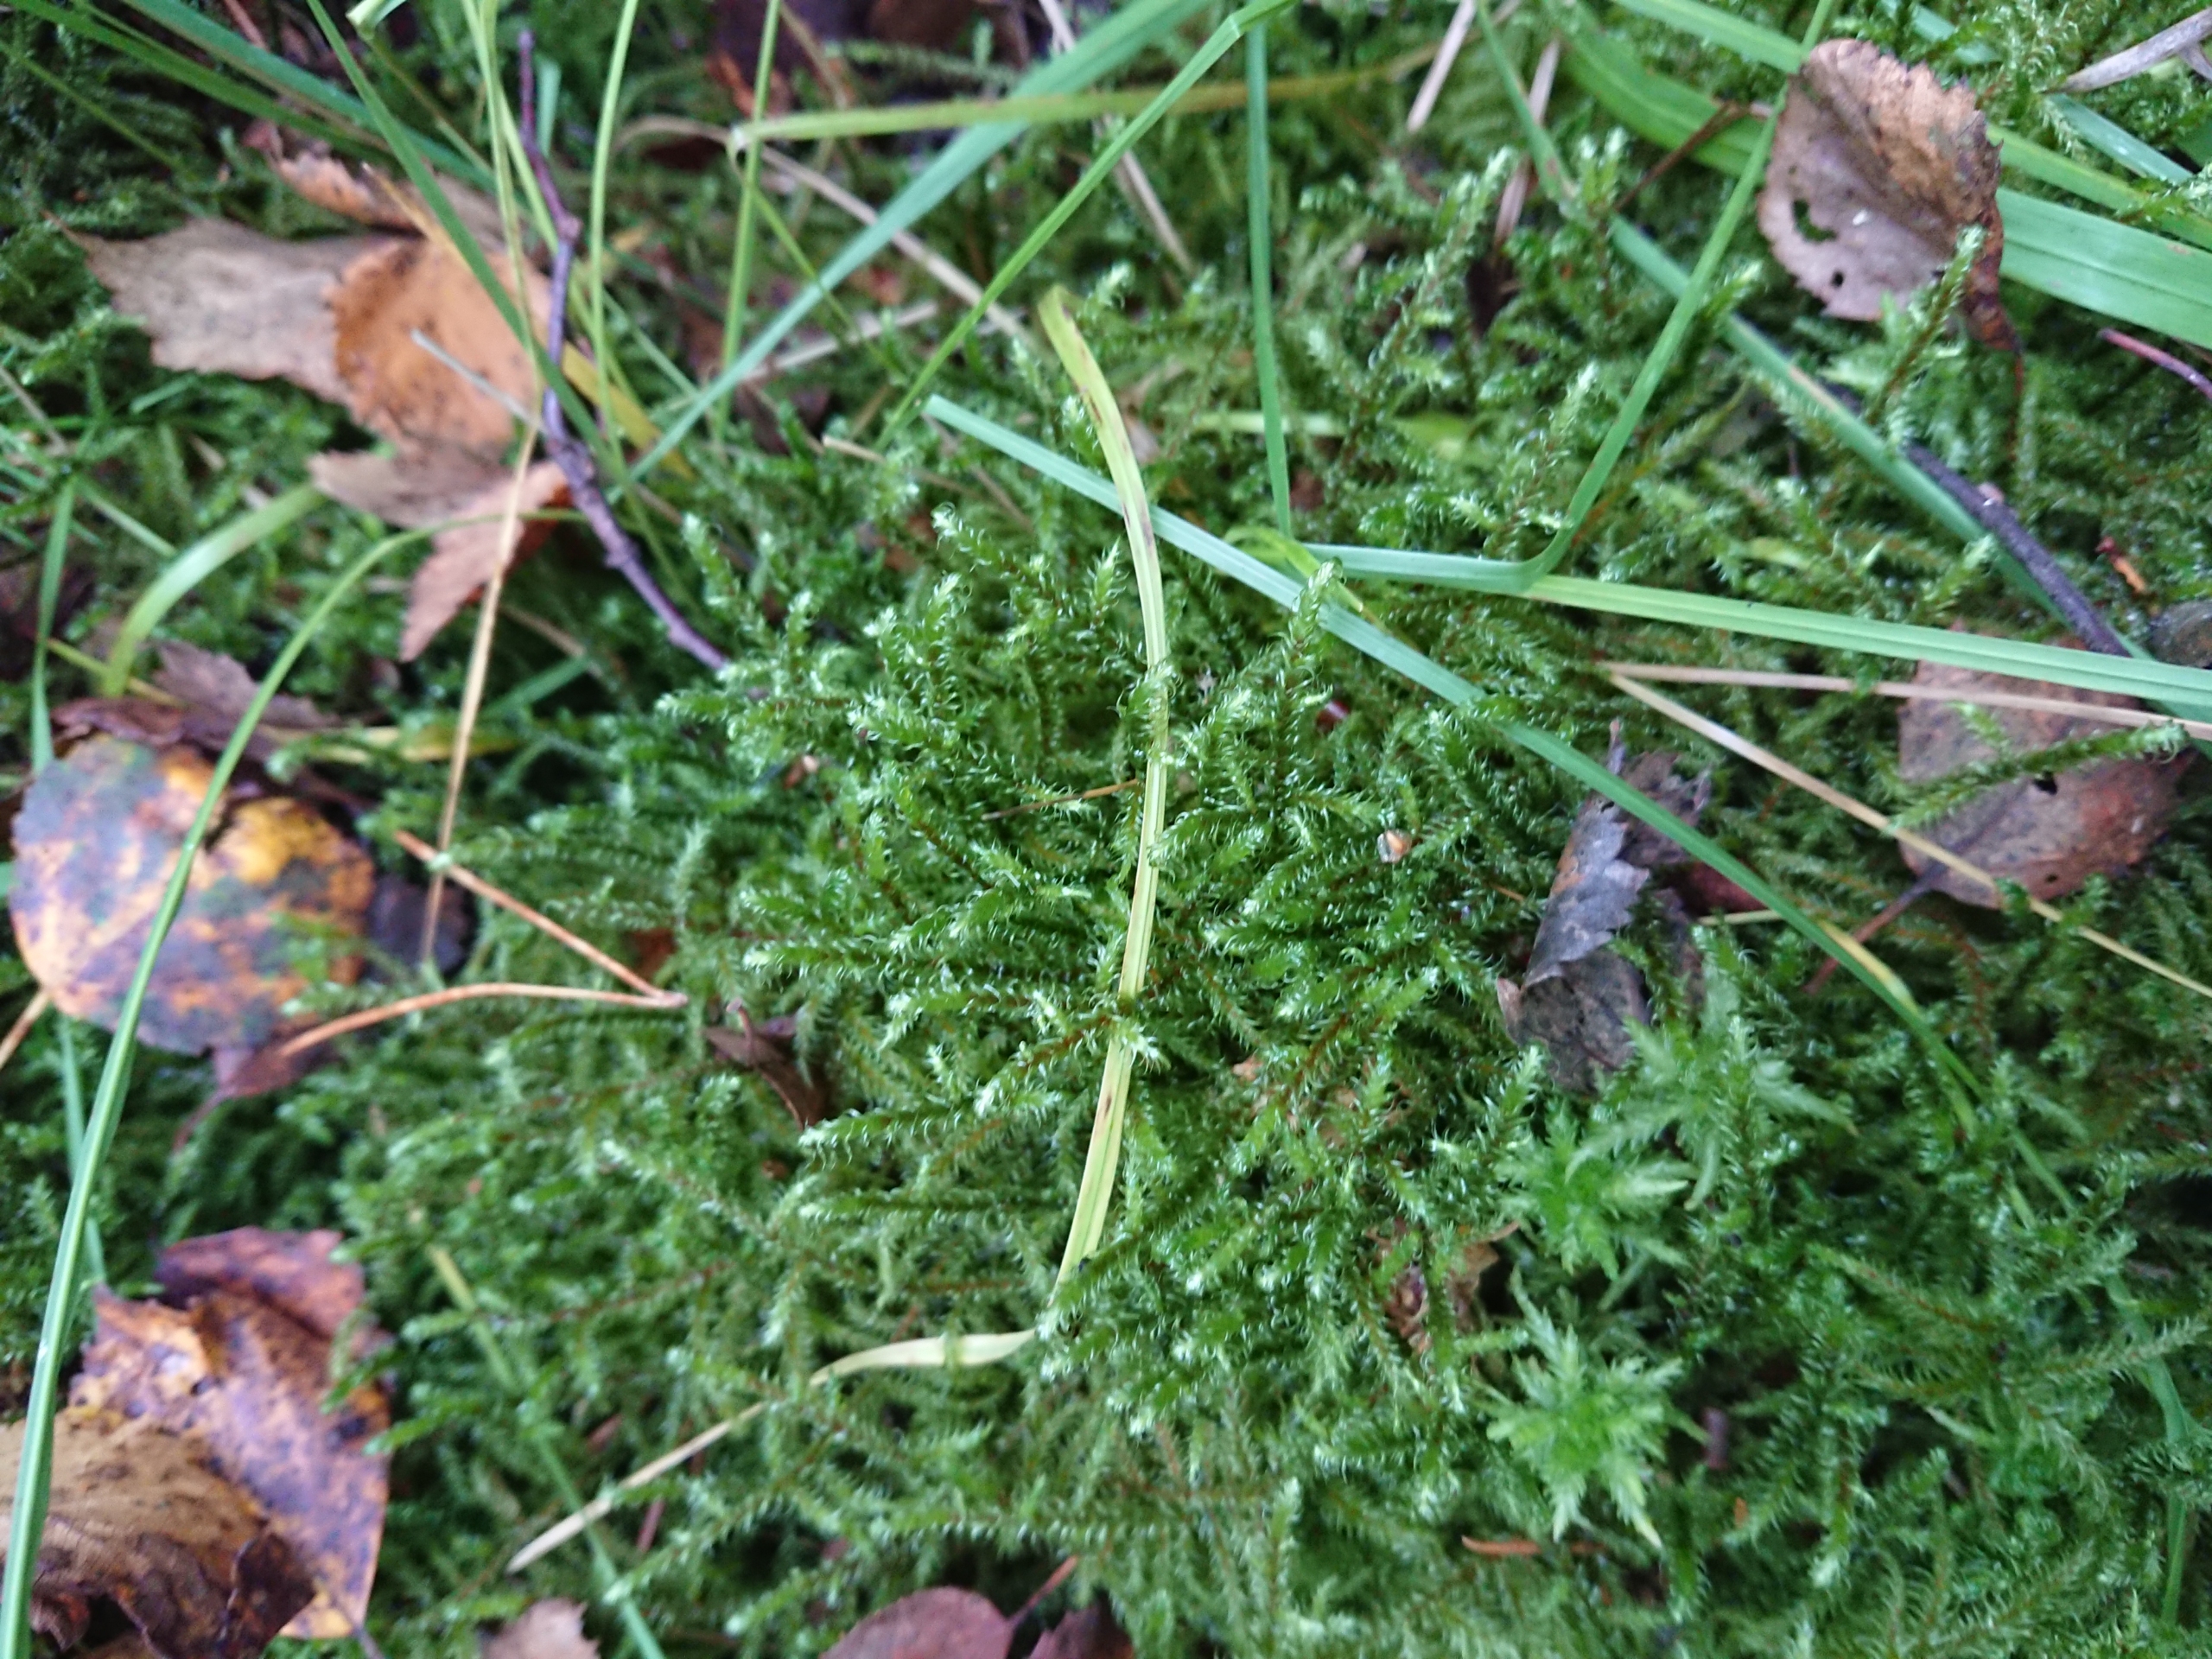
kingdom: Plantae
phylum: Bryophyta
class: Bryopsida
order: Hypnales
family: Hylocomiaceae
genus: Rhytidiadelphus
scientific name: Rhytidiadelphus loreus
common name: Ulvefod-kransemos
